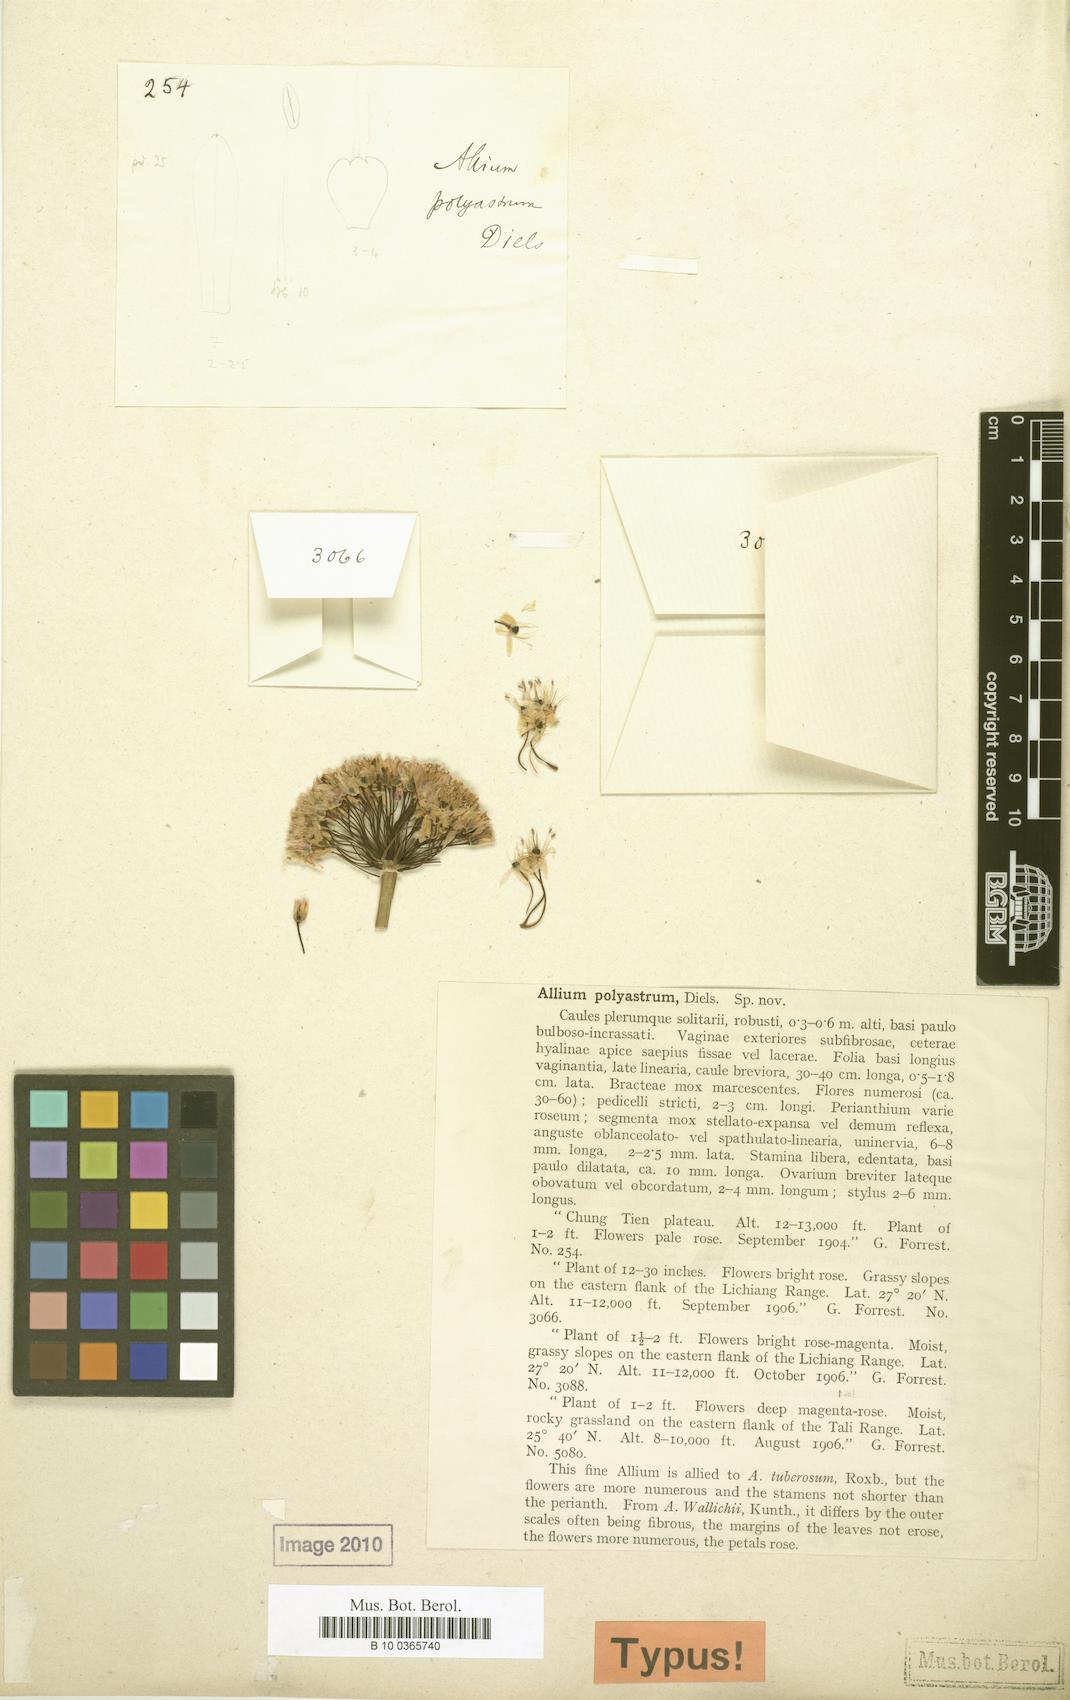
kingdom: Plantae
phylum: Tracheophyta
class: Liliopsida
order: Asparagales
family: Amaryllidaceae
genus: Allium
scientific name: Allium wallichii
